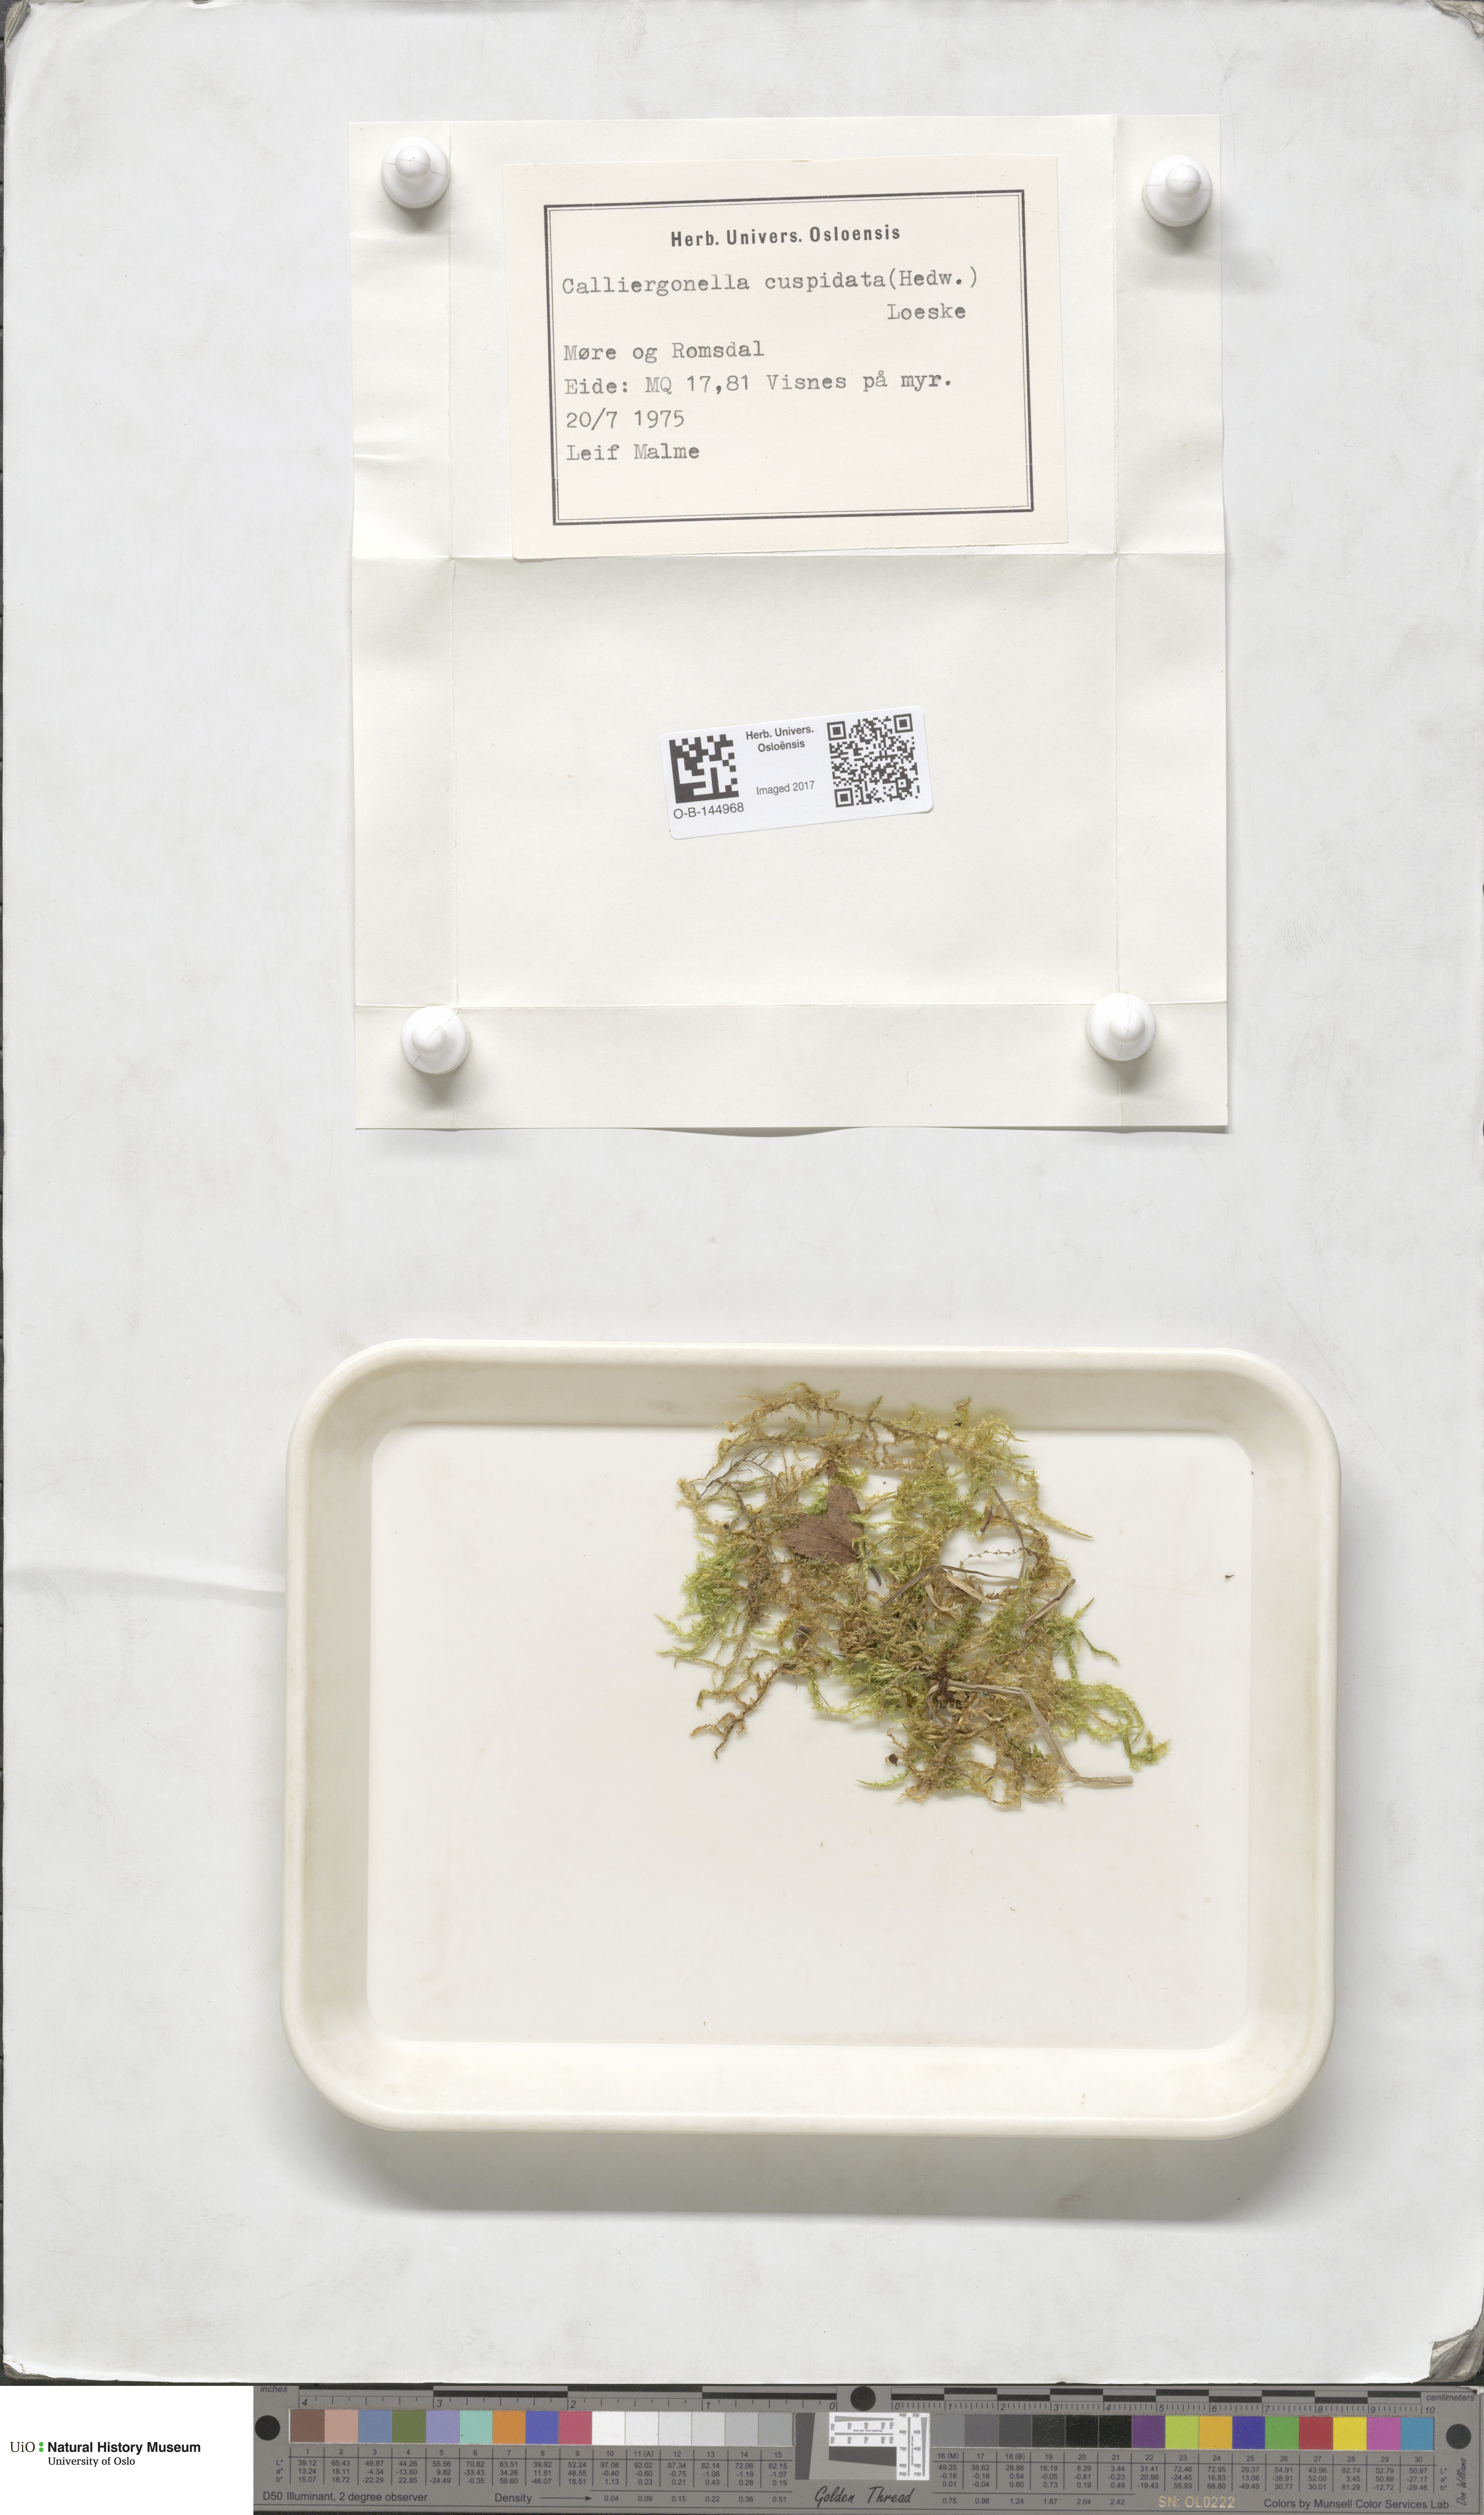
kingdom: Plantae
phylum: Bryophyta
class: Bryopsida
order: Hypnales
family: Pylaisiaceae
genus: Calliergonella
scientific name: Calliergonella cuspidata
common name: Common large wetland moss
